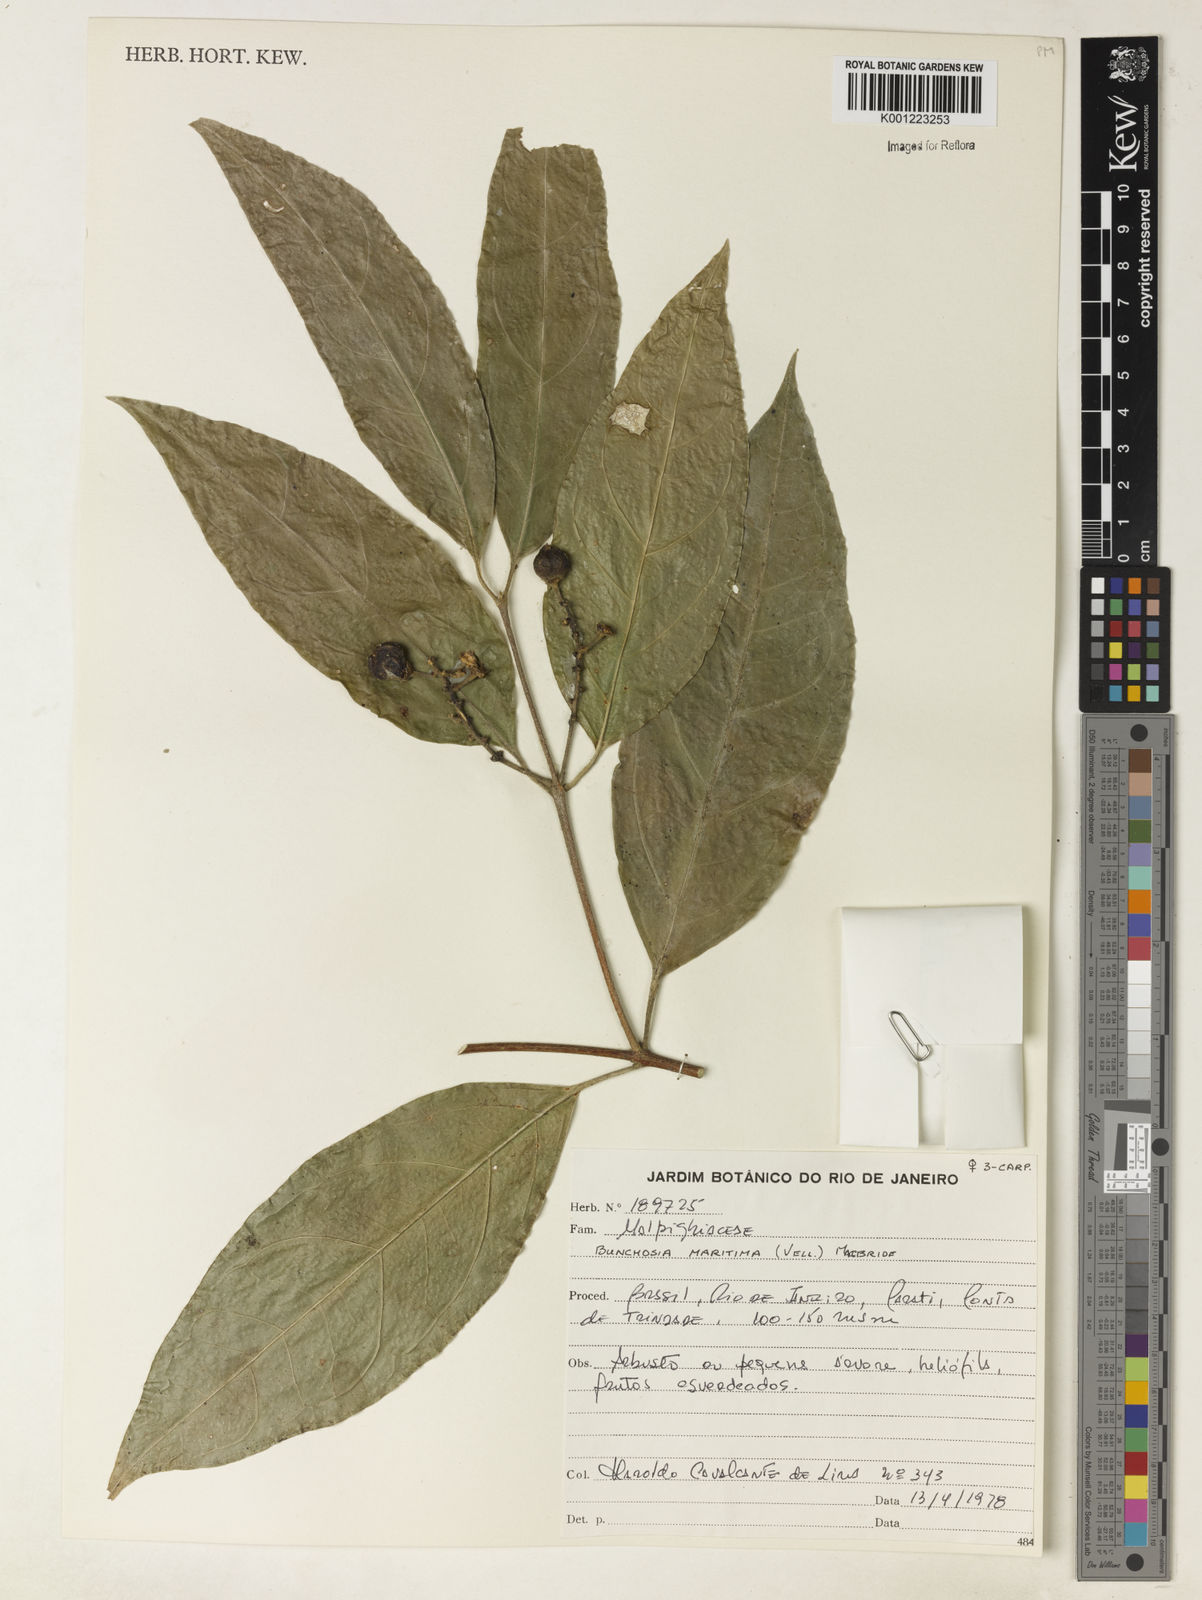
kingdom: Plantae
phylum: Tracheophyta
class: Magnoliopsida
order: Malpighiales
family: Malpighiaceae
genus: Bunchosia
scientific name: Bunchosia maritima
